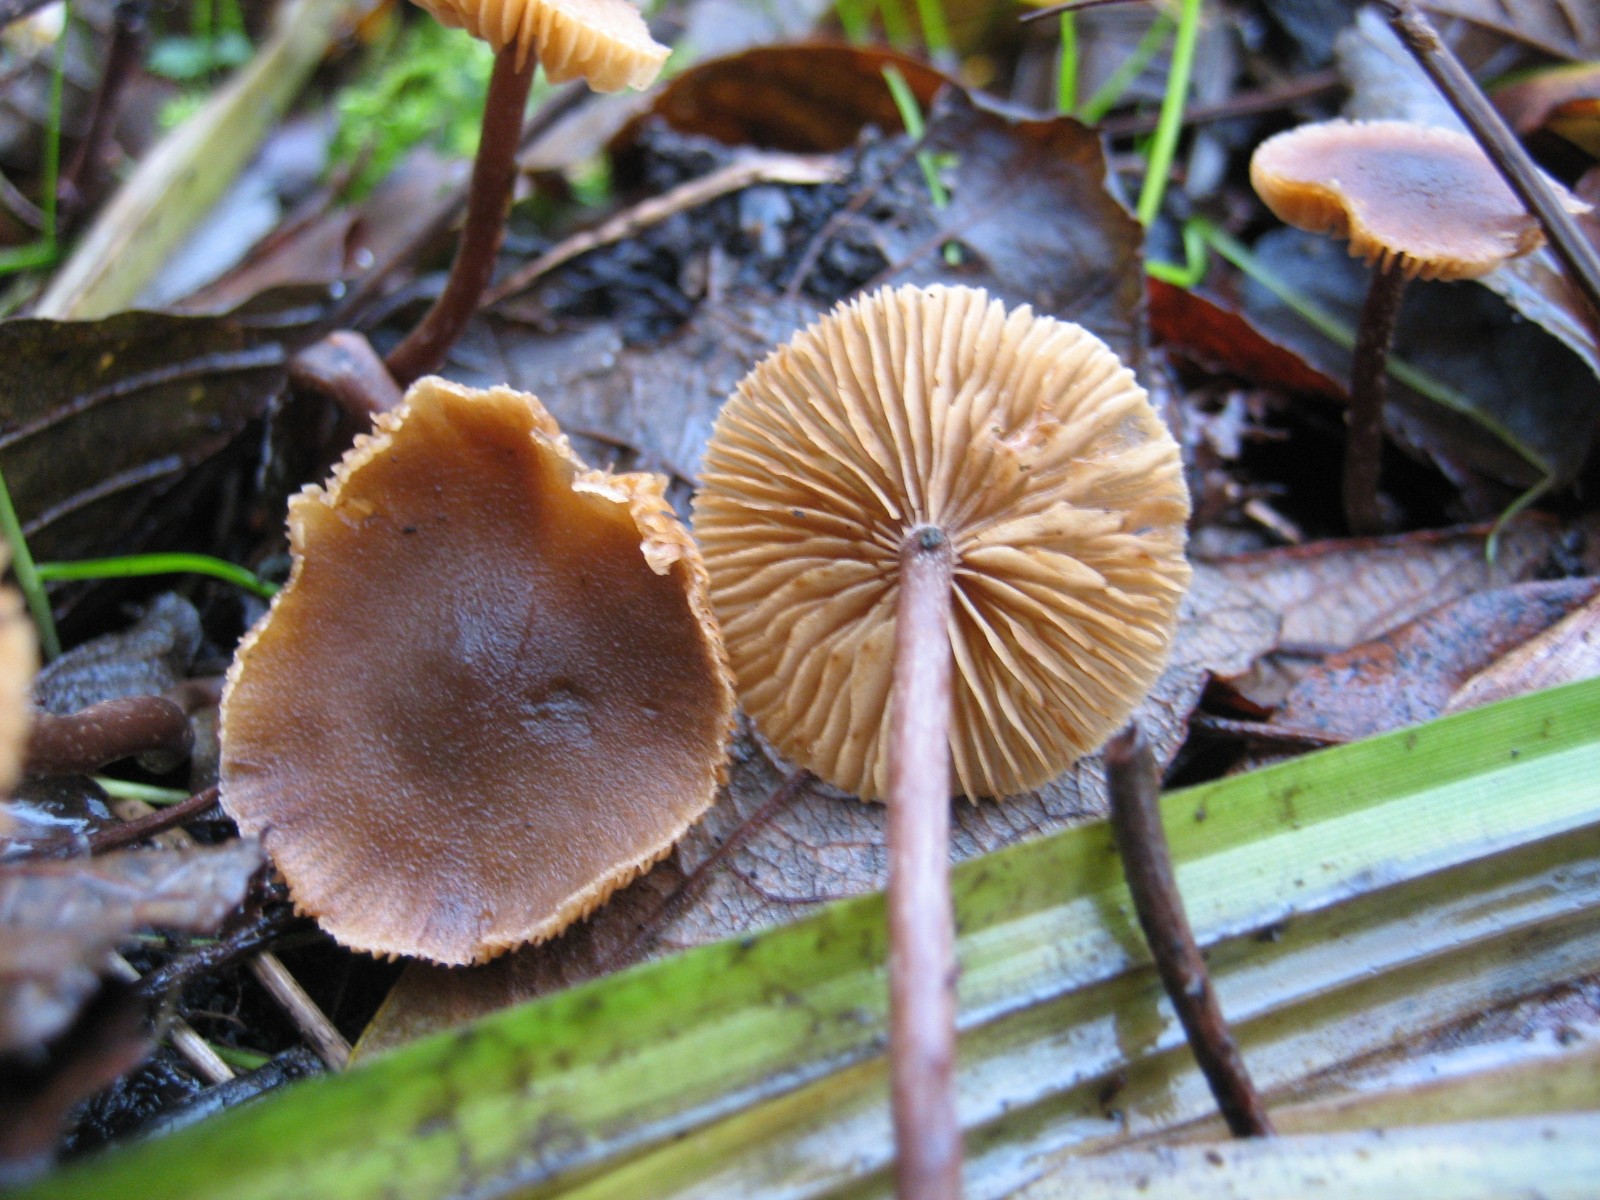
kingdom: Fungi
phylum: Basidiomycota
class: Agaricomycetes
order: Agaricales
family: Hymenogastraceae
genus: Naucoria
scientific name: Naucoria
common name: knaphat
